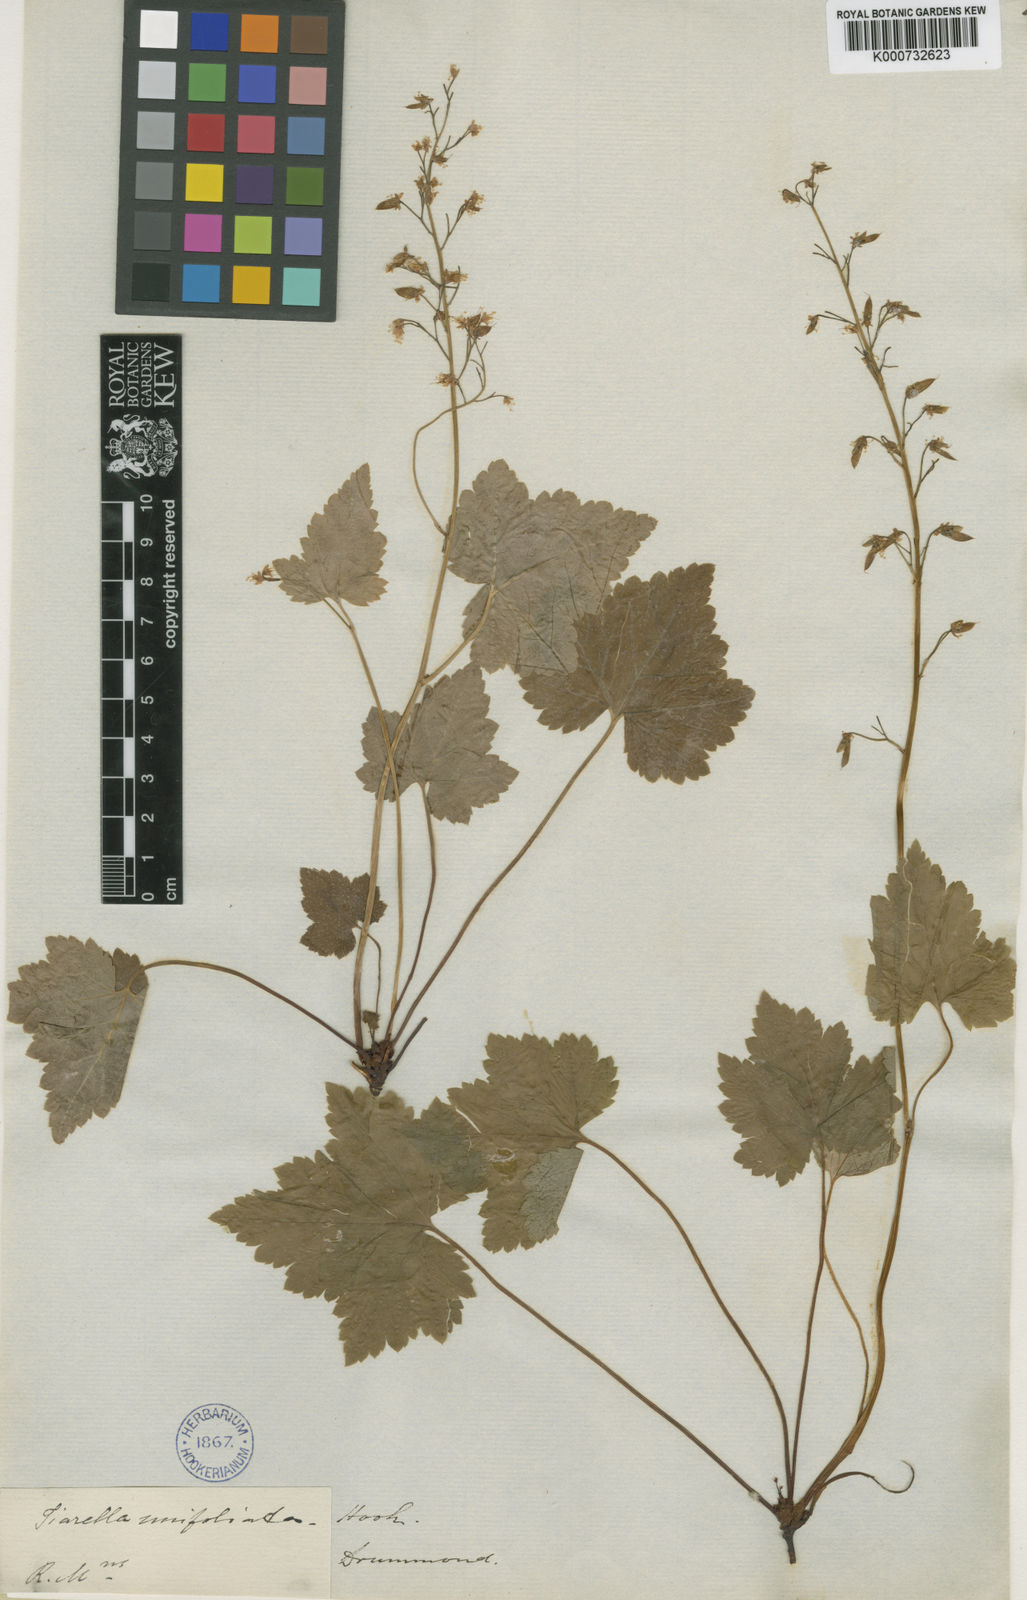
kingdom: Plantae
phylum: Tracheophyta
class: Magnoliopsida
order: Saxifragales
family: Saxifragaceae
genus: Tiarella
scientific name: Tiarella trifoliata
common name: Sugar-scoop
